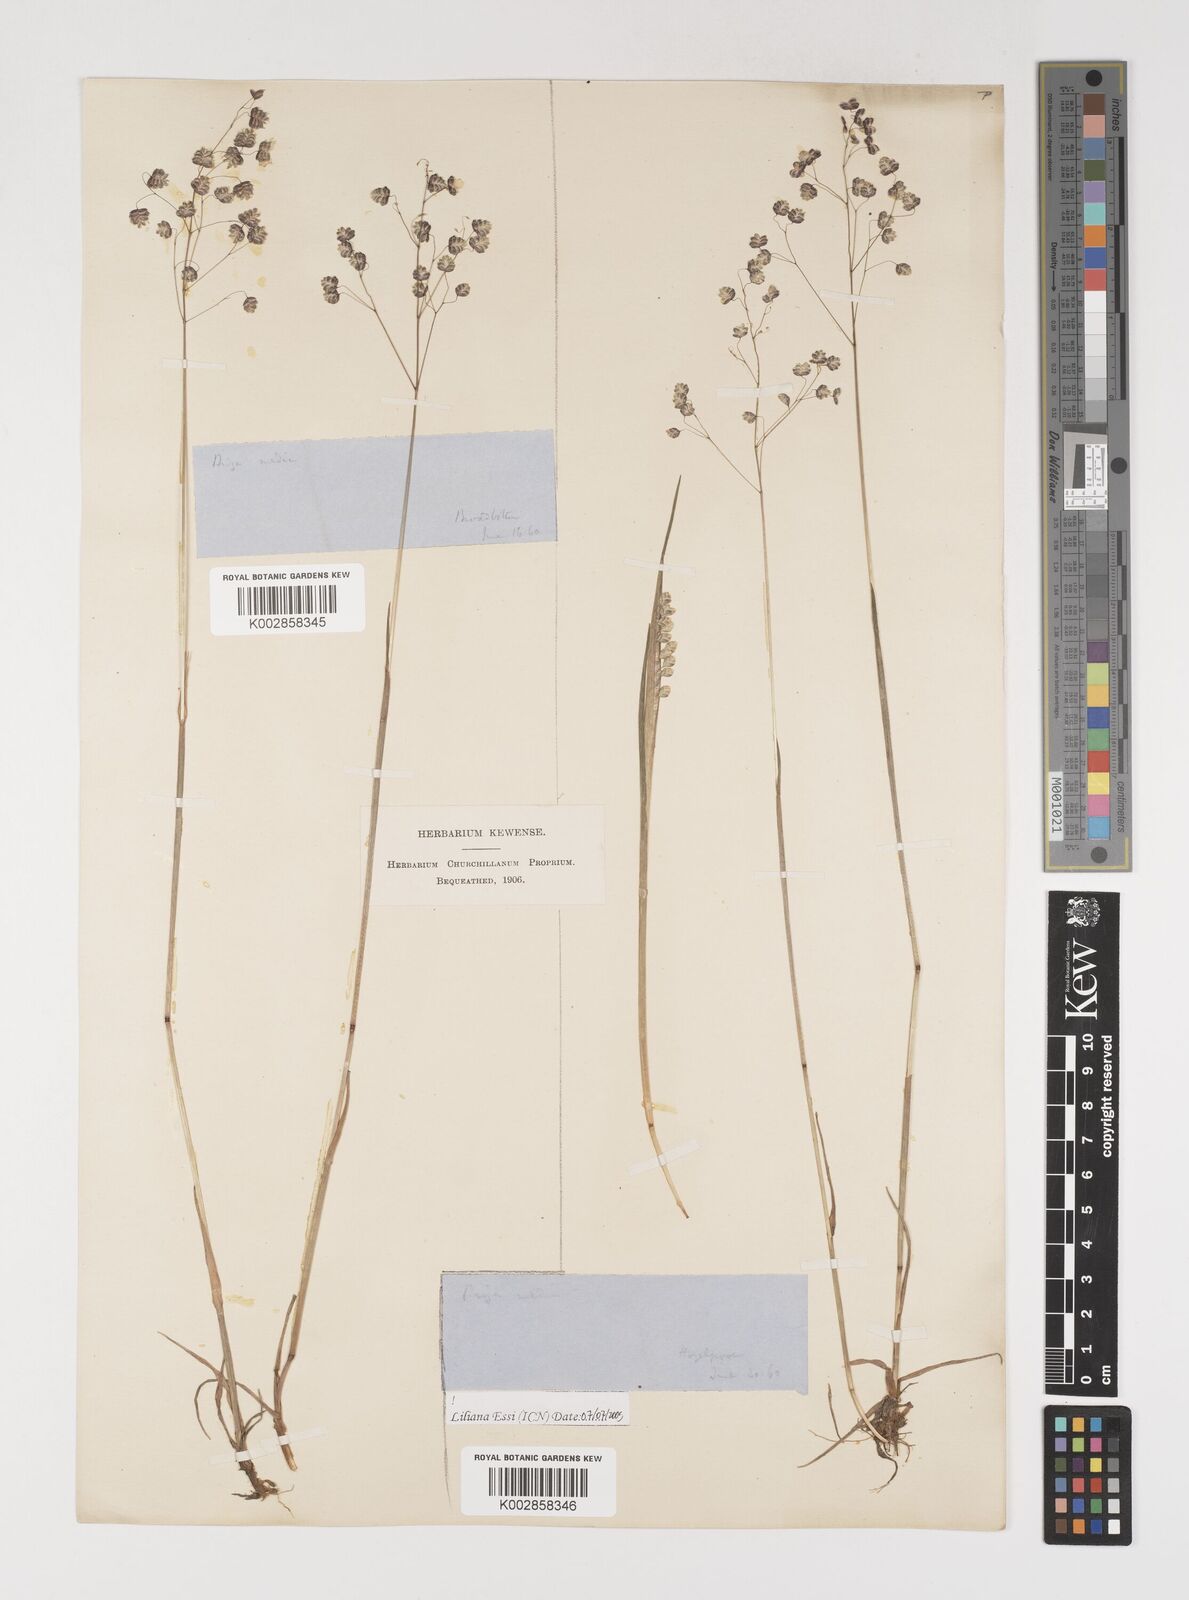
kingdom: Plantae
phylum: Tracheophyta
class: Liliopsida
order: Poales
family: Poaceae
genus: Briza
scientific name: Briza media
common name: Quaking grass
